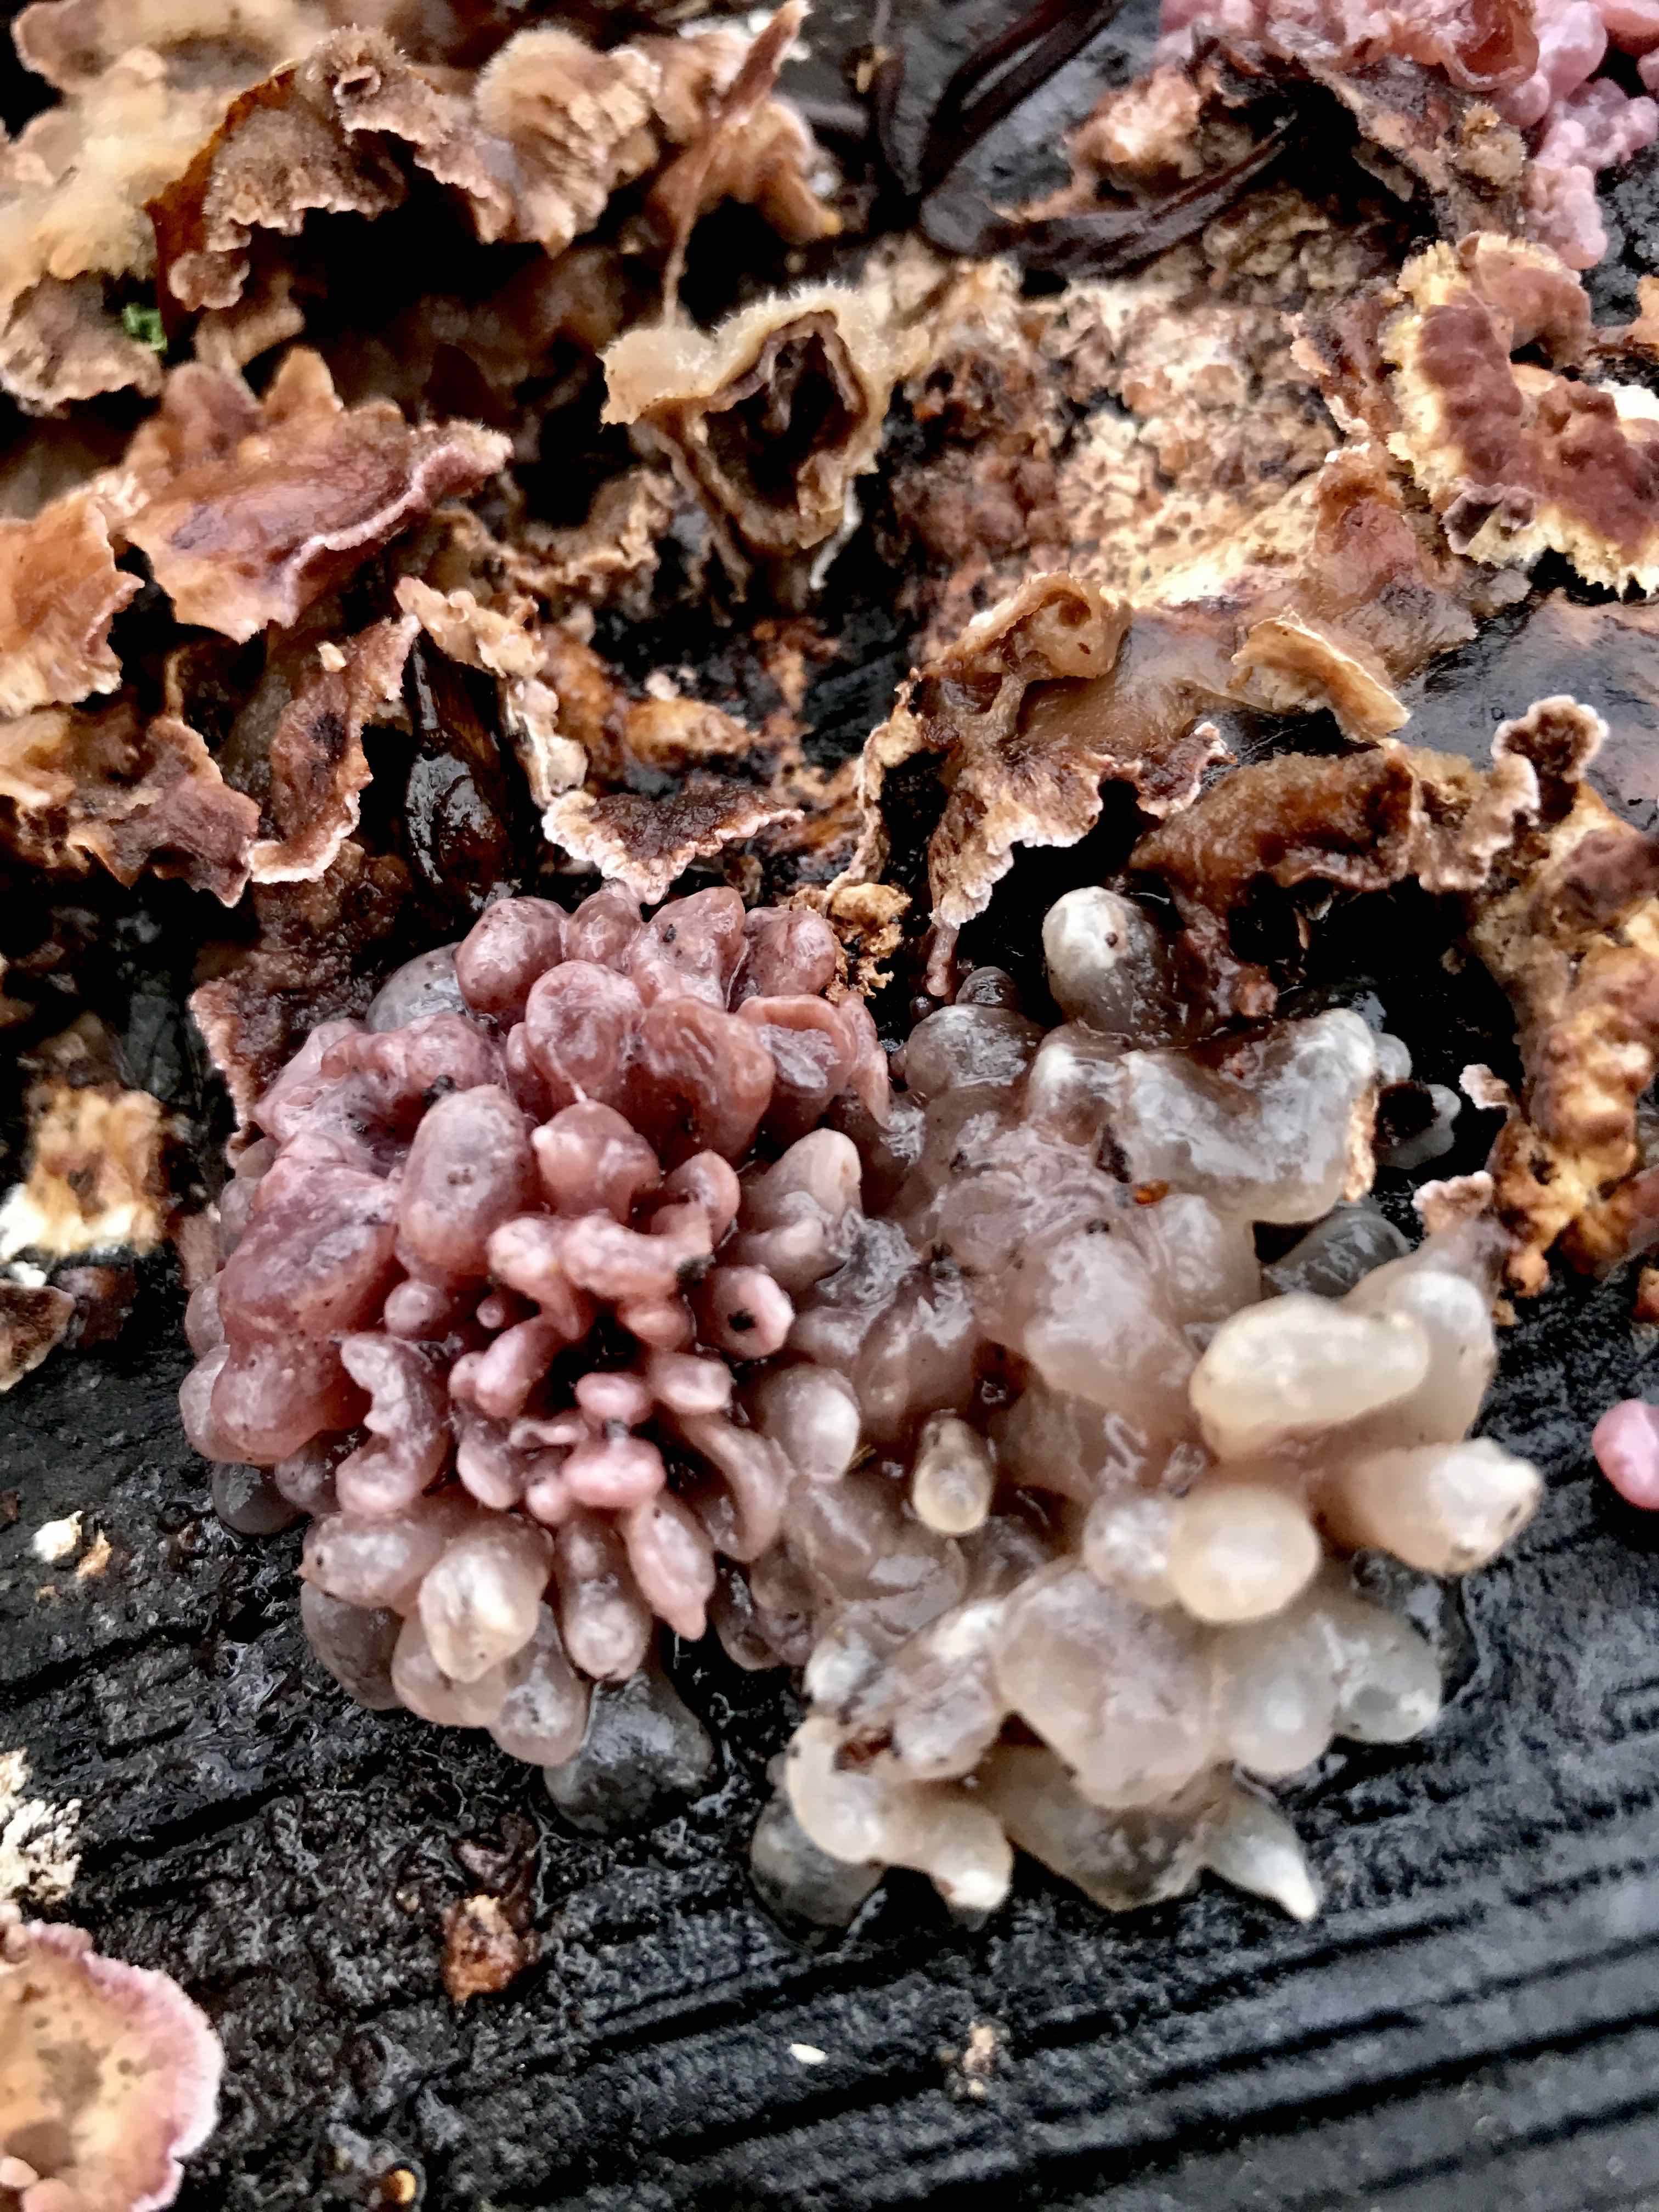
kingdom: Fungi
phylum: Ascomycota
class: Leotiomycetes
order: Helotiales
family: Gelatinodiscaceae
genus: Ascocoryne
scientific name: Ascocoryne sarcoides
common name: rødlilla sejskive
